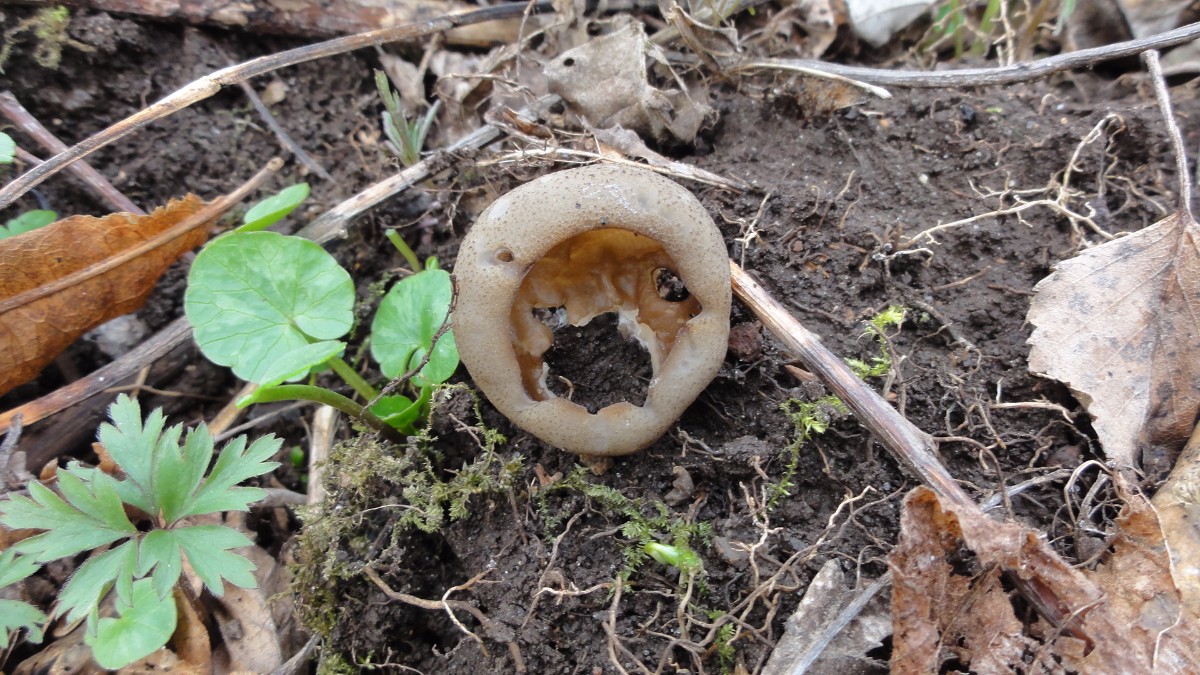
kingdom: Fungi
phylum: Ascomycota
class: Pezizomycetes
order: Pezizales
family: Morchellaceae
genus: Disciotis
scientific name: Disciotis venosa
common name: klor-bægermorkel
